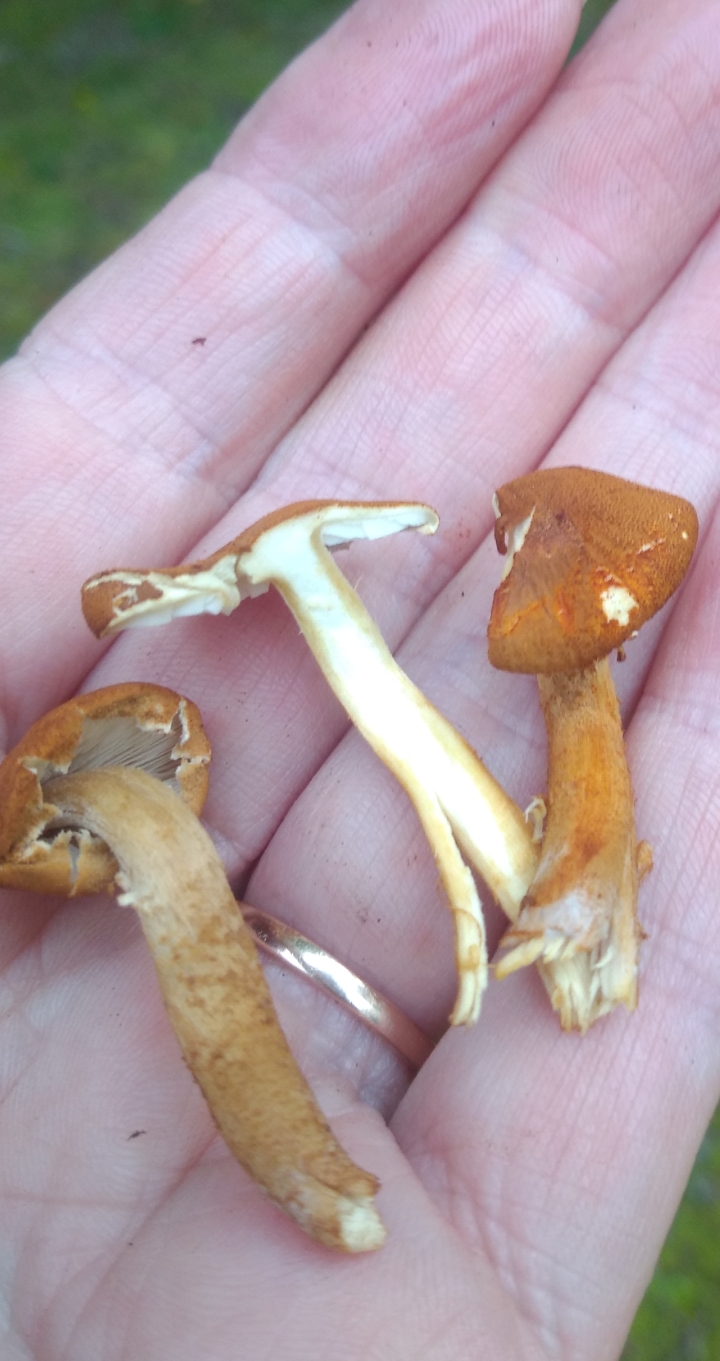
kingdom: Fungi
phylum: Basidiomycota
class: Agaricomycetes
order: Agaricales
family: Tricholomataceae
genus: Cystoderma
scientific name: Cystoderma
